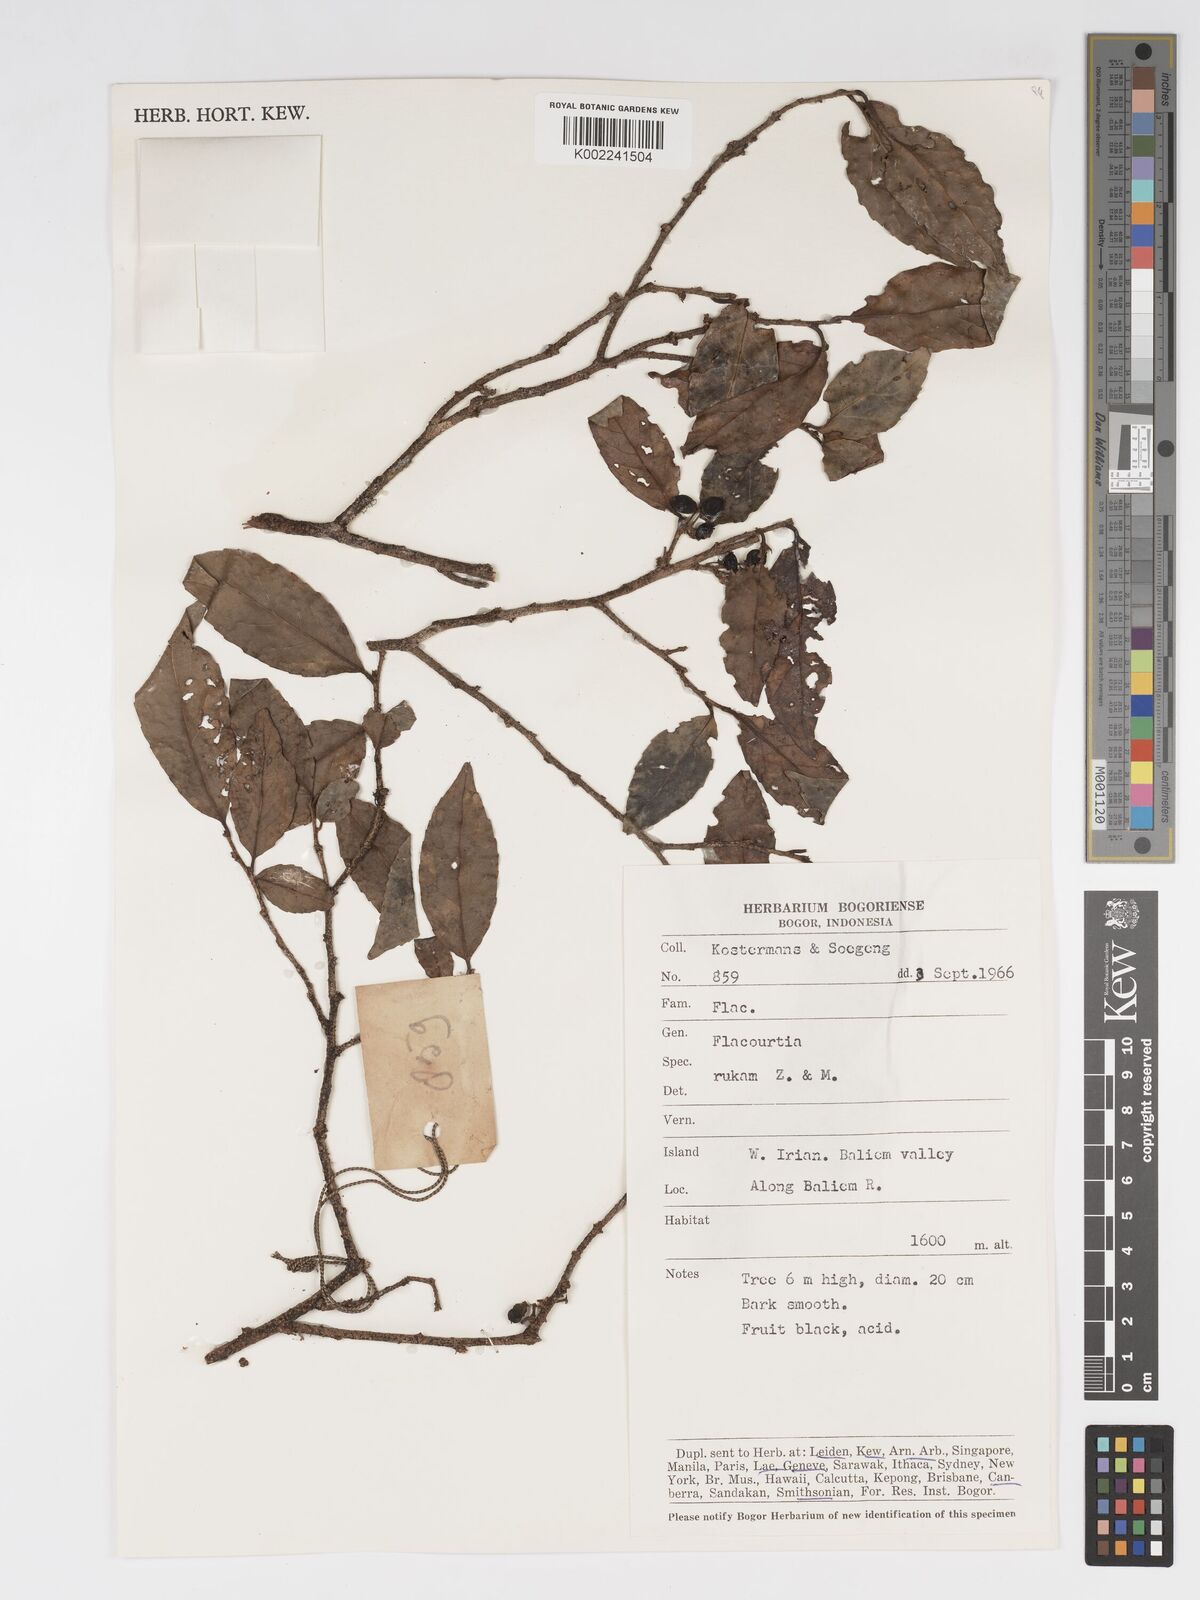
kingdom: Plantae
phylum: Tracheophyta
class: Magnoliopsida
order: Malpighiales
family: Salicaceae
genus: Flacourtia
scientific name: Flacourtia rukam
